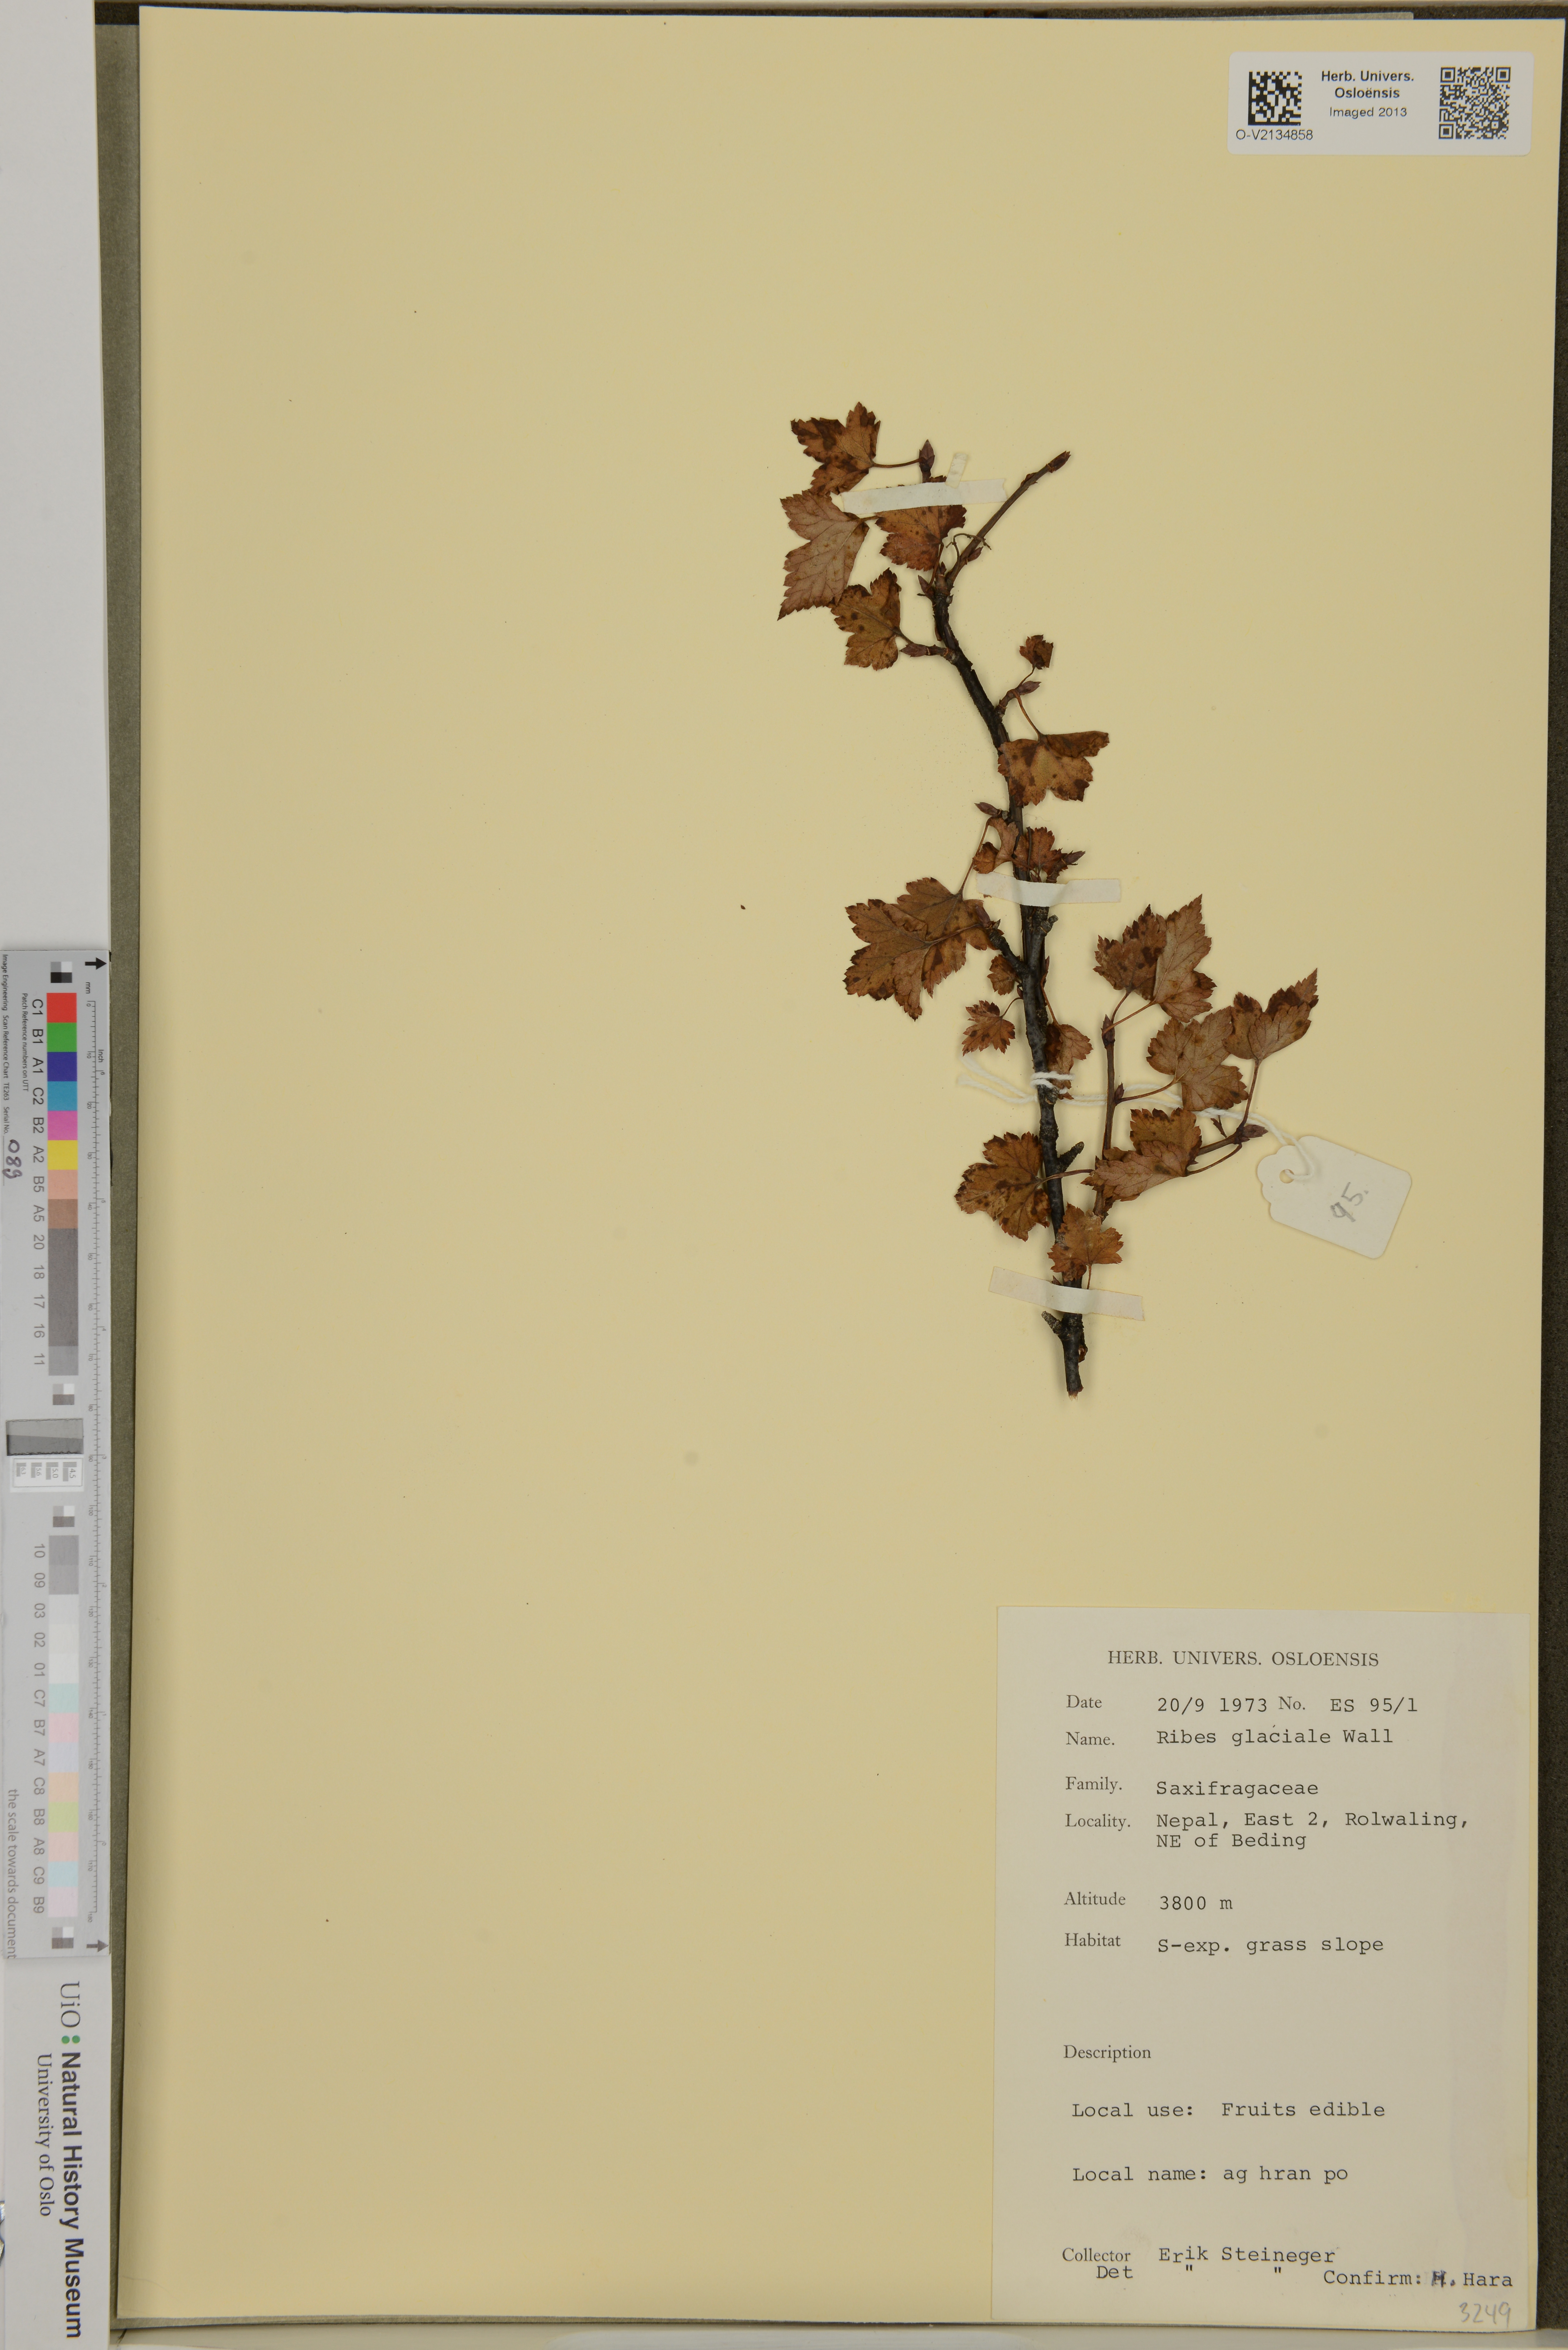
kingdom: Plantae
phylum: Tracheophyta
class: Magnoliopsida
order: Saxifragales
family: Grossulariaceae
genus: Ribes
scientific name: Ribes glaciale
